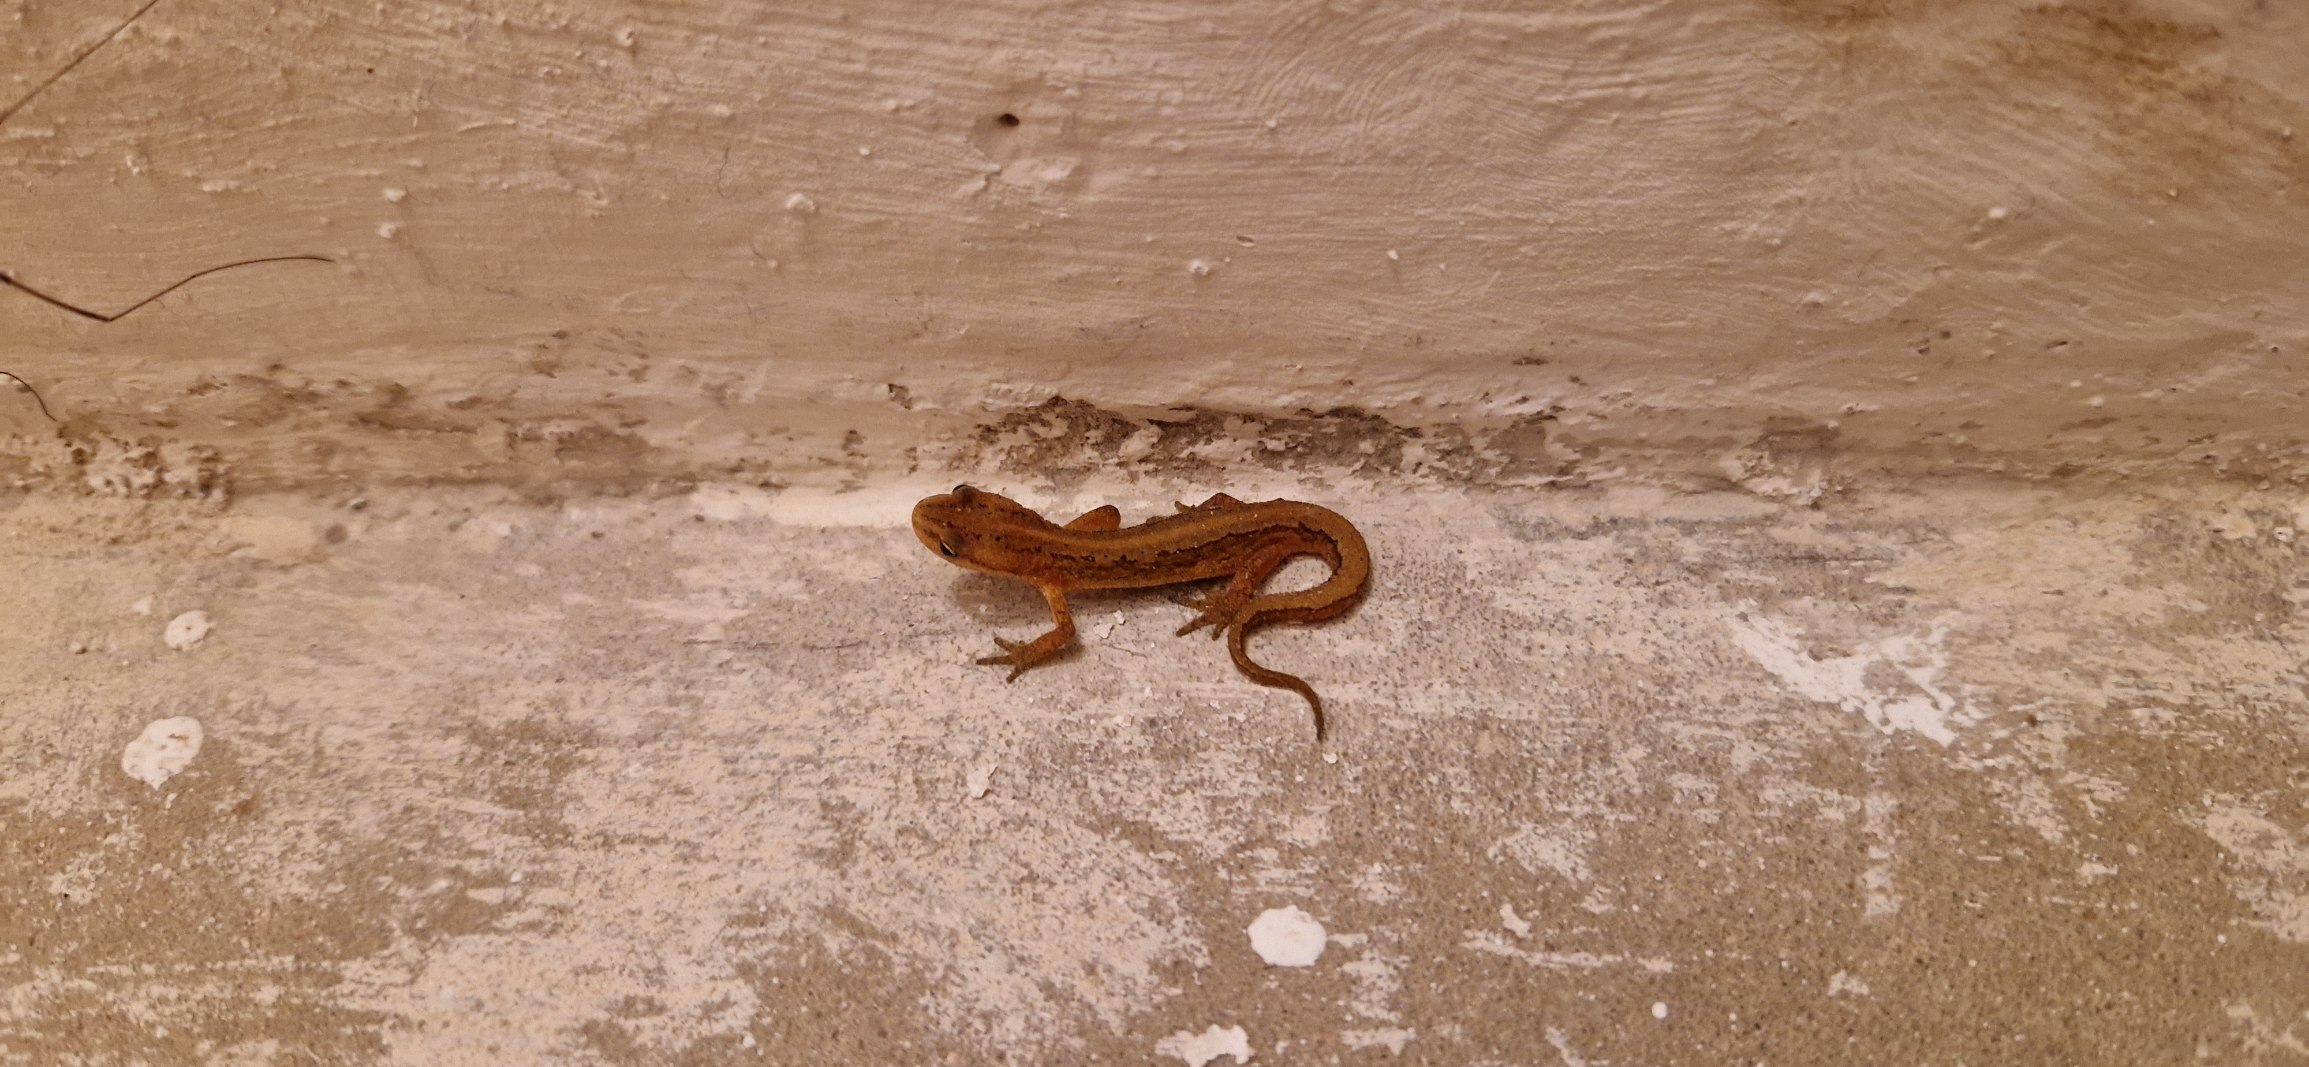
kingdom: Animalia
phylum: Chordata
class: Amphibia
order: Caudata
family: Salamandridae
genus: Lissotriton
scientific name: Lissotriton vulgaris
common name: Lille vandsalamander
